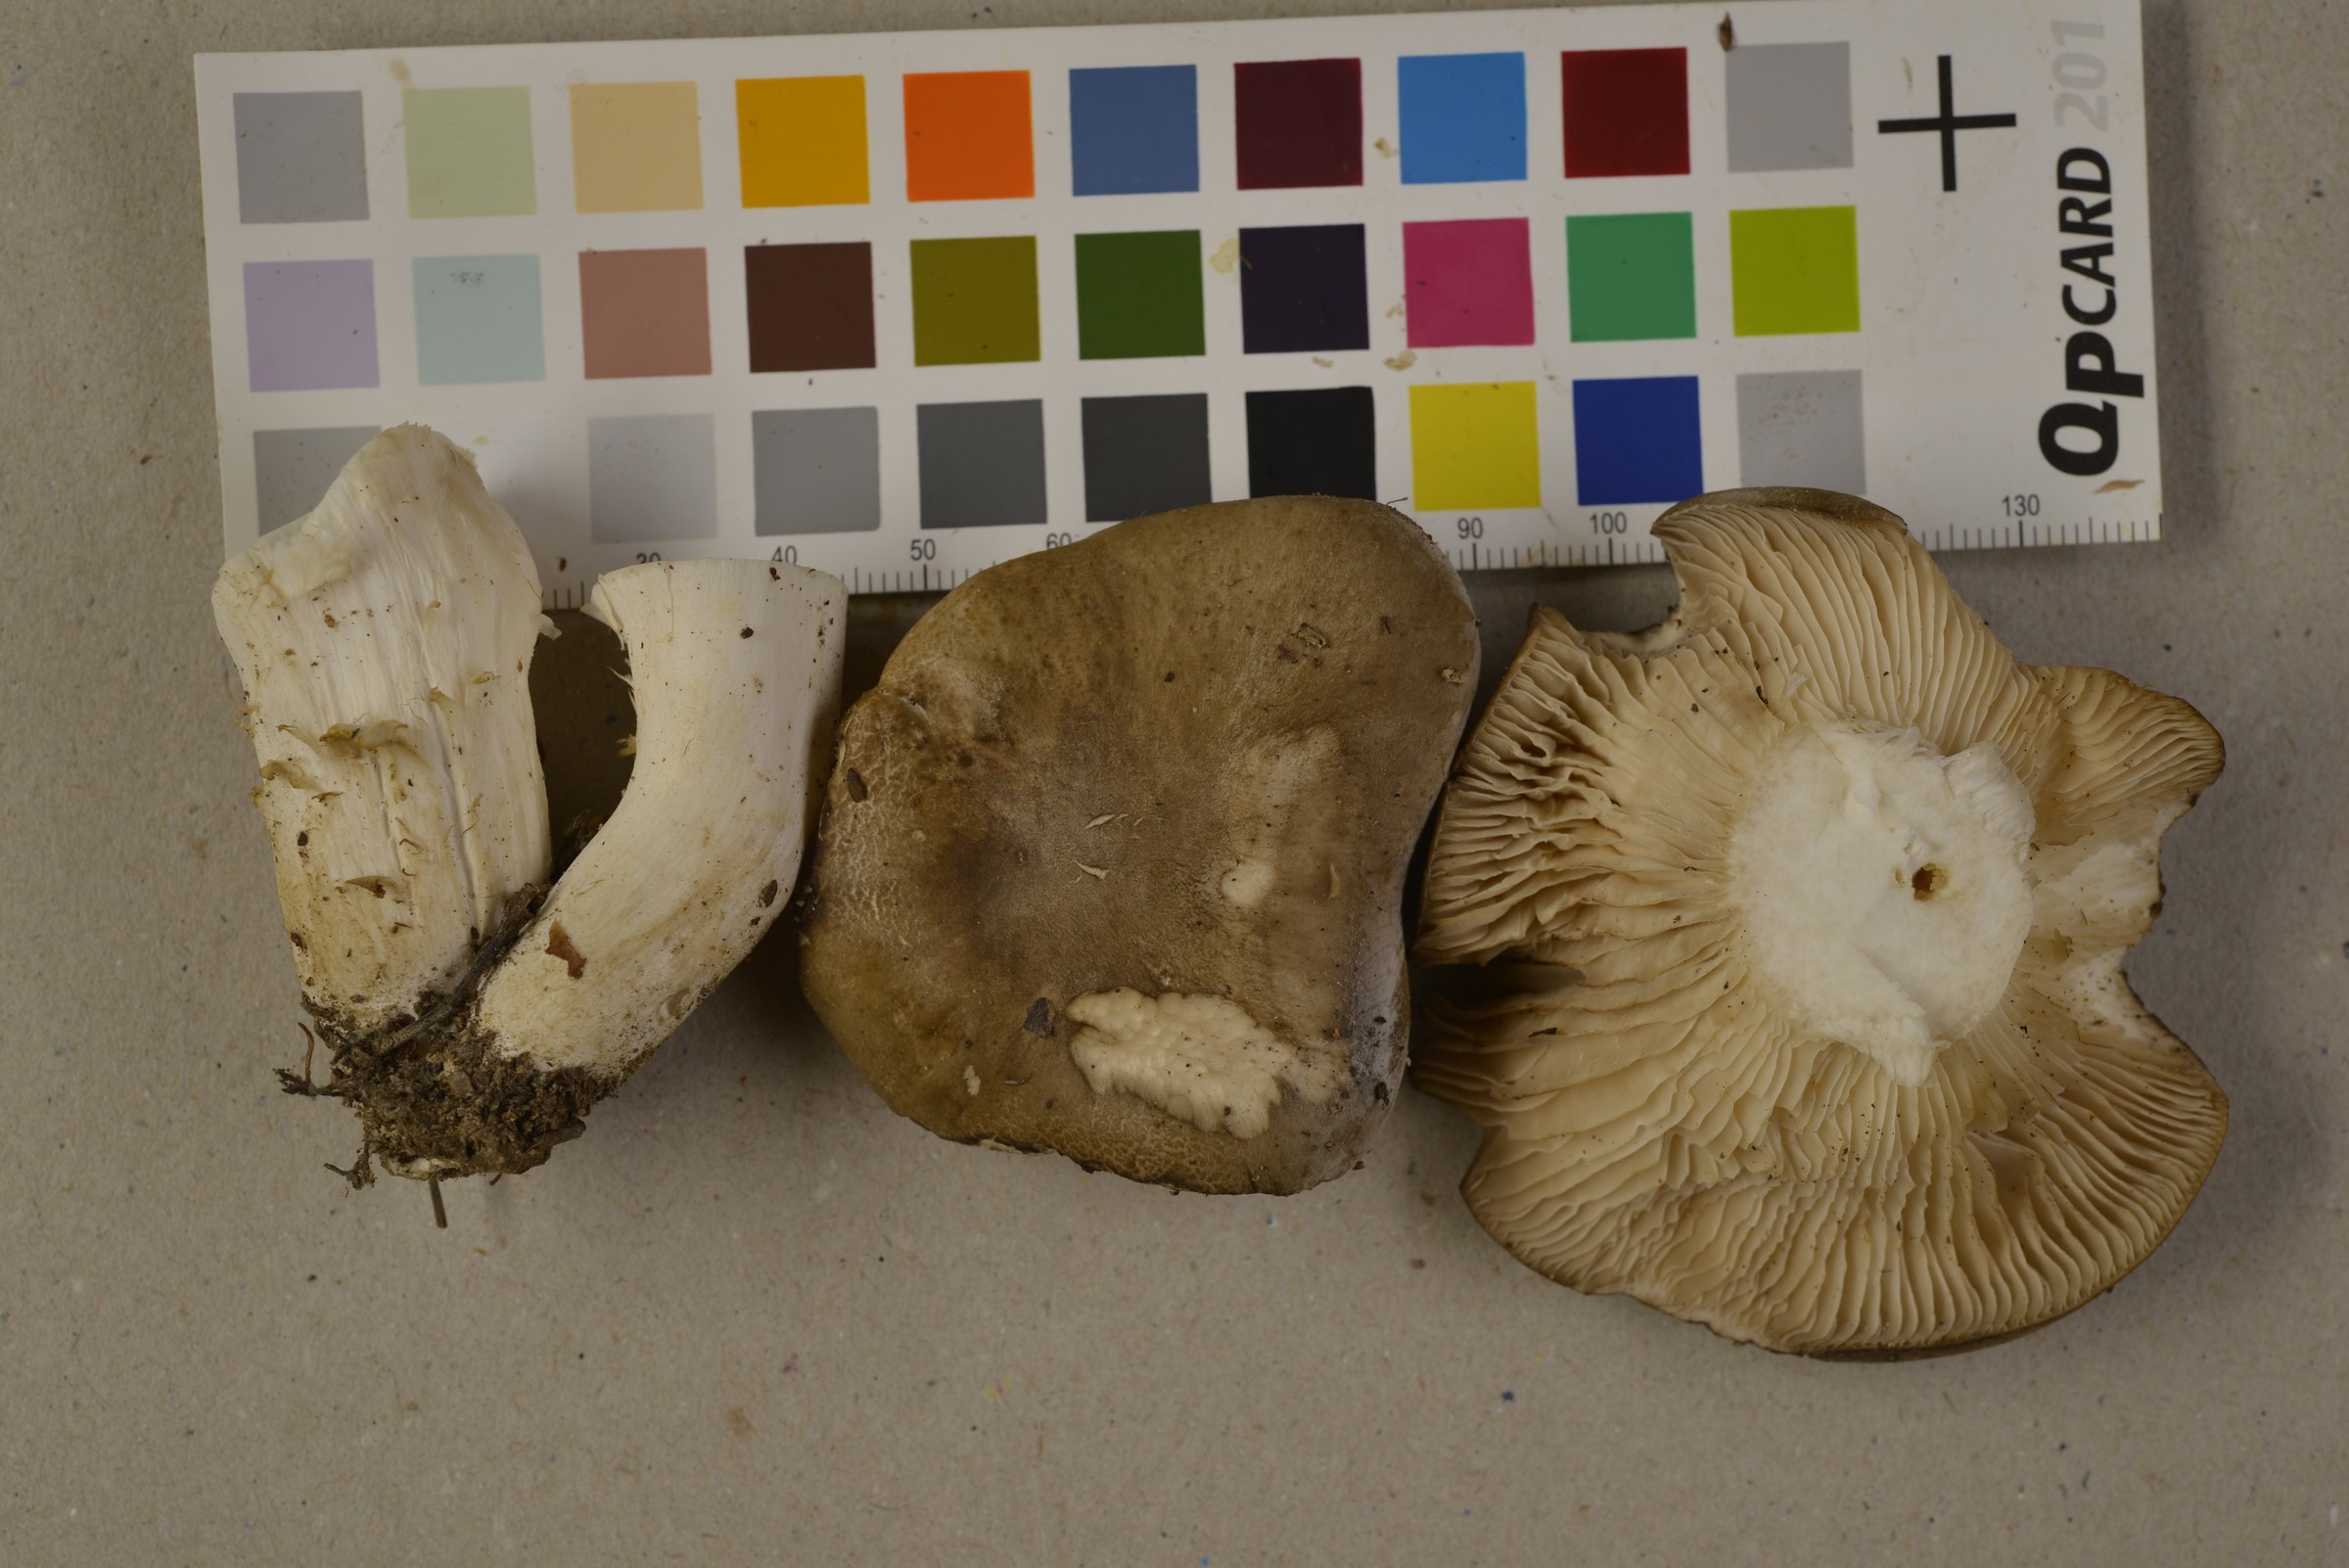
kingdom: Fungi
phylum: Basidiomycota
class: Agaricomycetes
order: Agaricales
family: Lyophyllaceae
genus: Lyophyllum
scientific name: Lyophyllum shimeji
